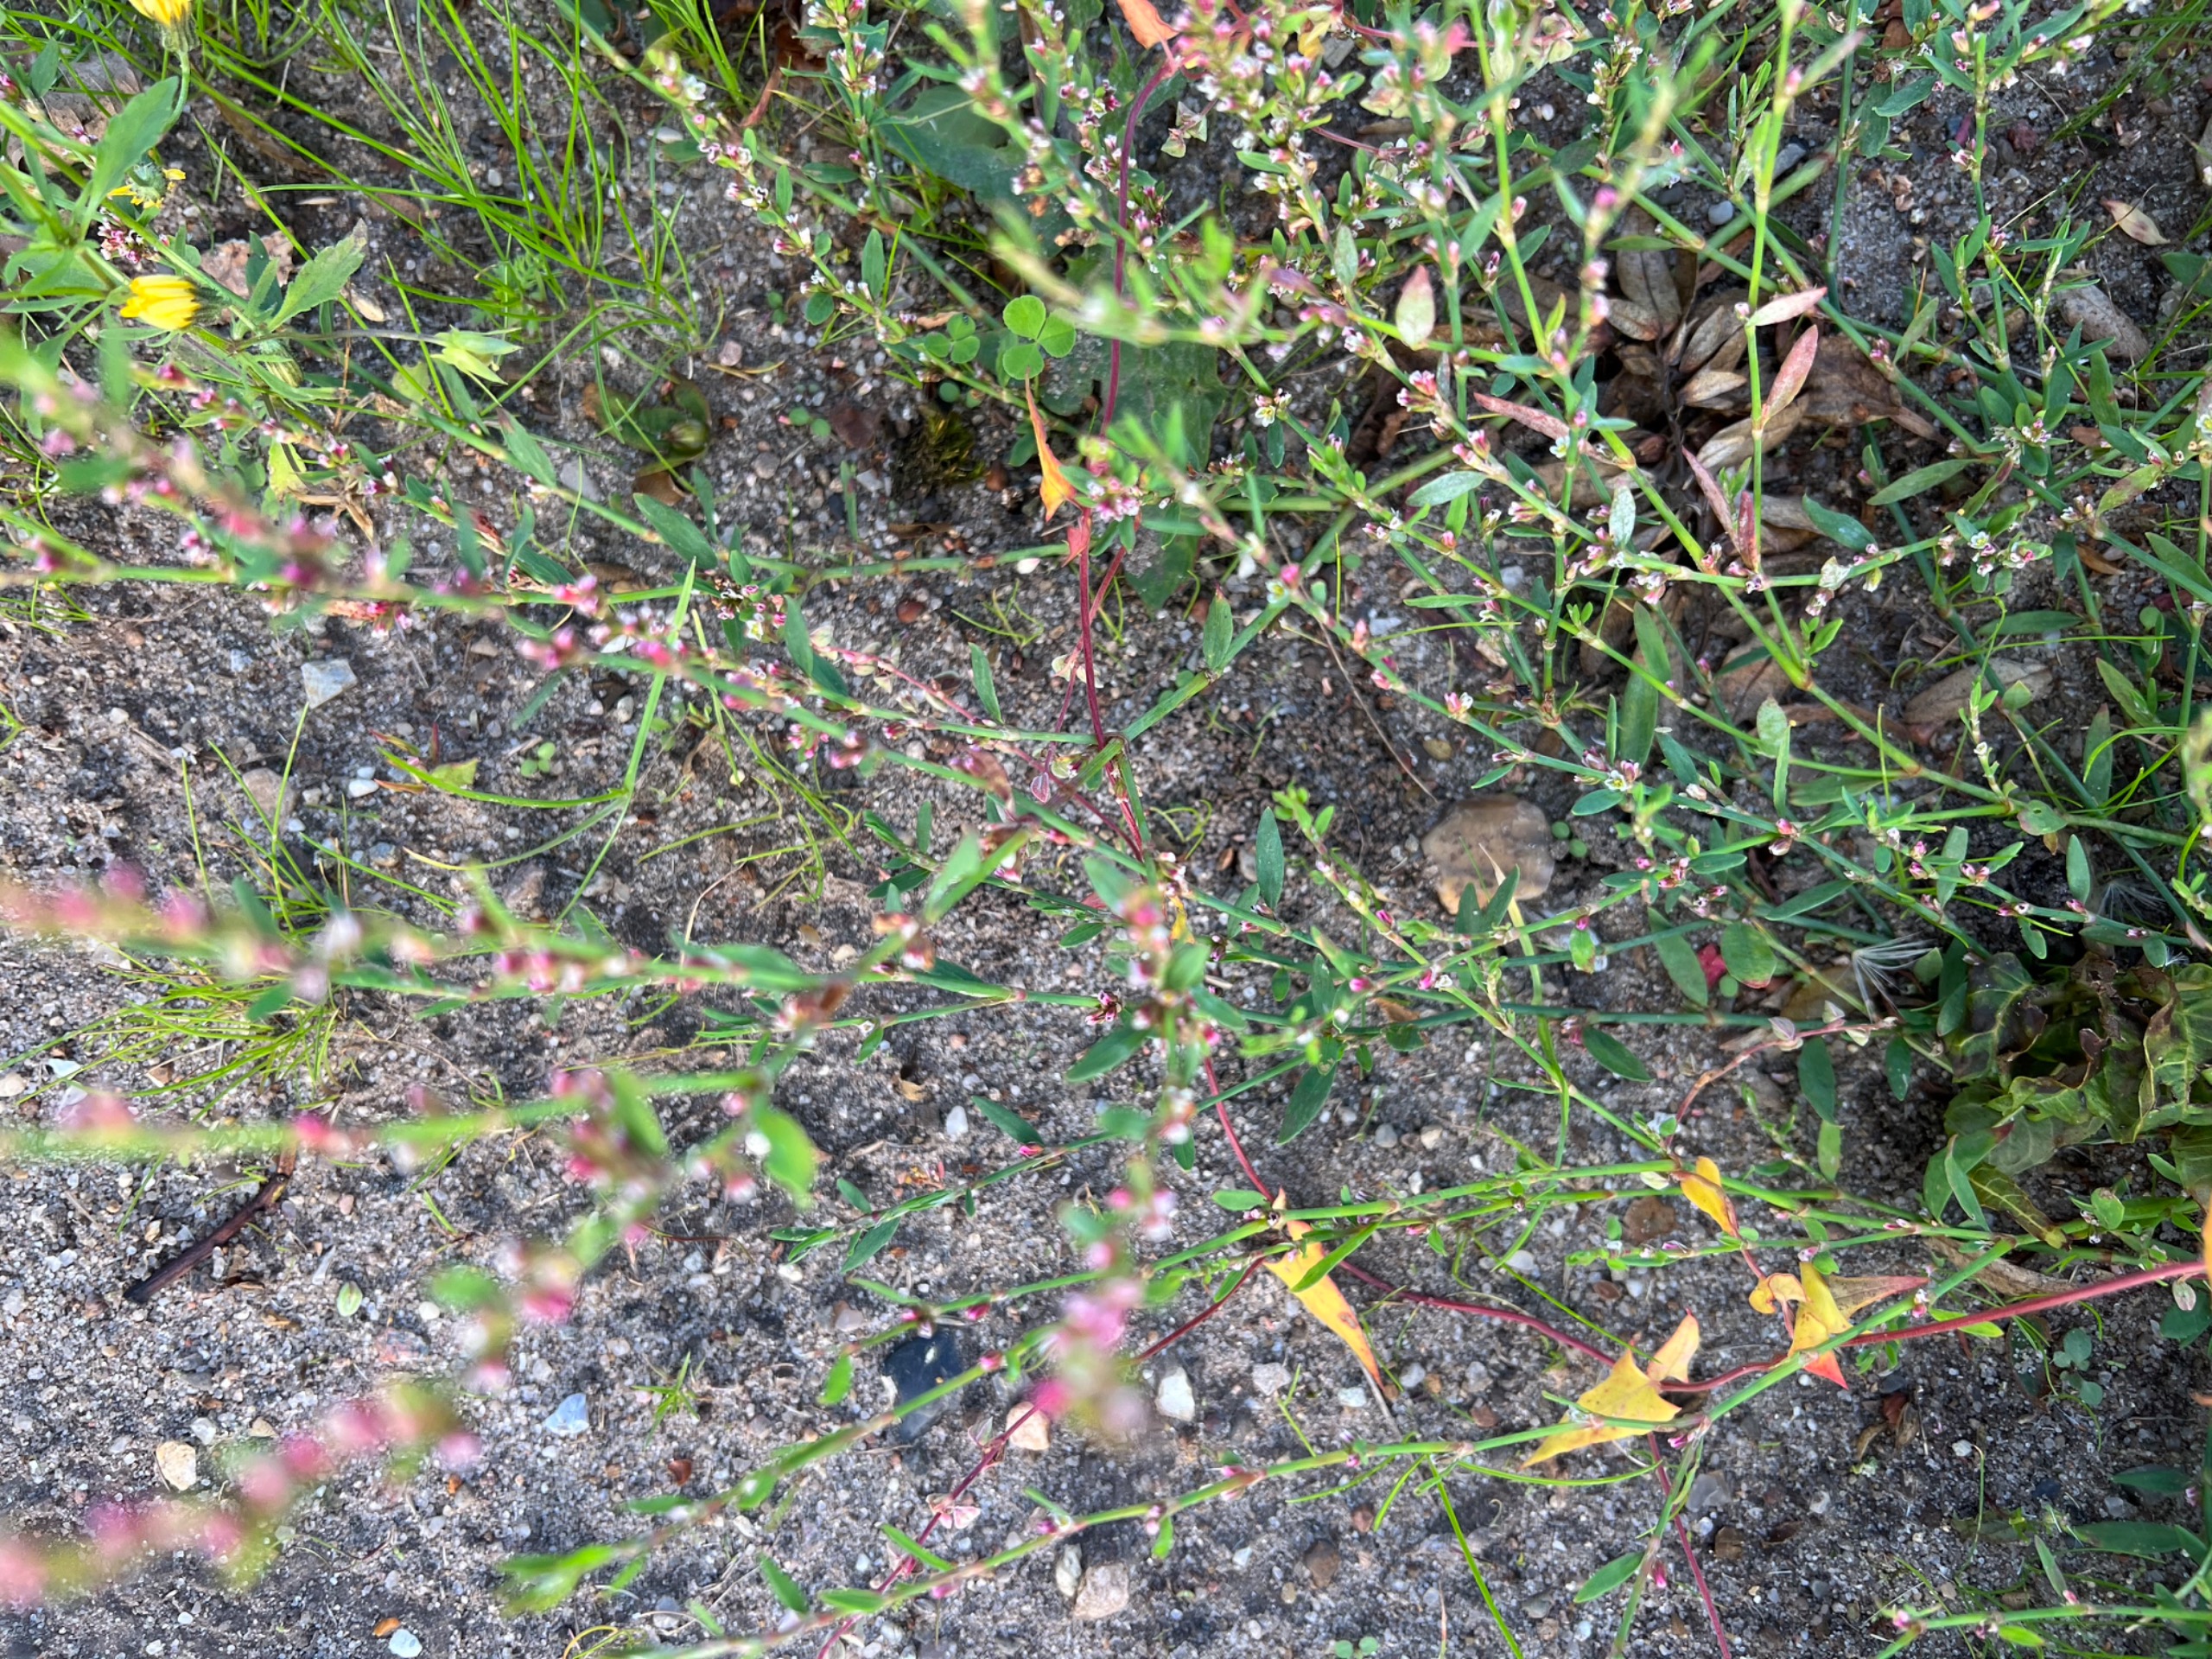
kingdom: Plantae
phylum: Tracheophyta
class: Magnoliopsida
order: Caryophyllales
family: Polygonaceae
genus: Polygonum
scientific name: Polygonum aviculare
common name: Vej-pileurt
